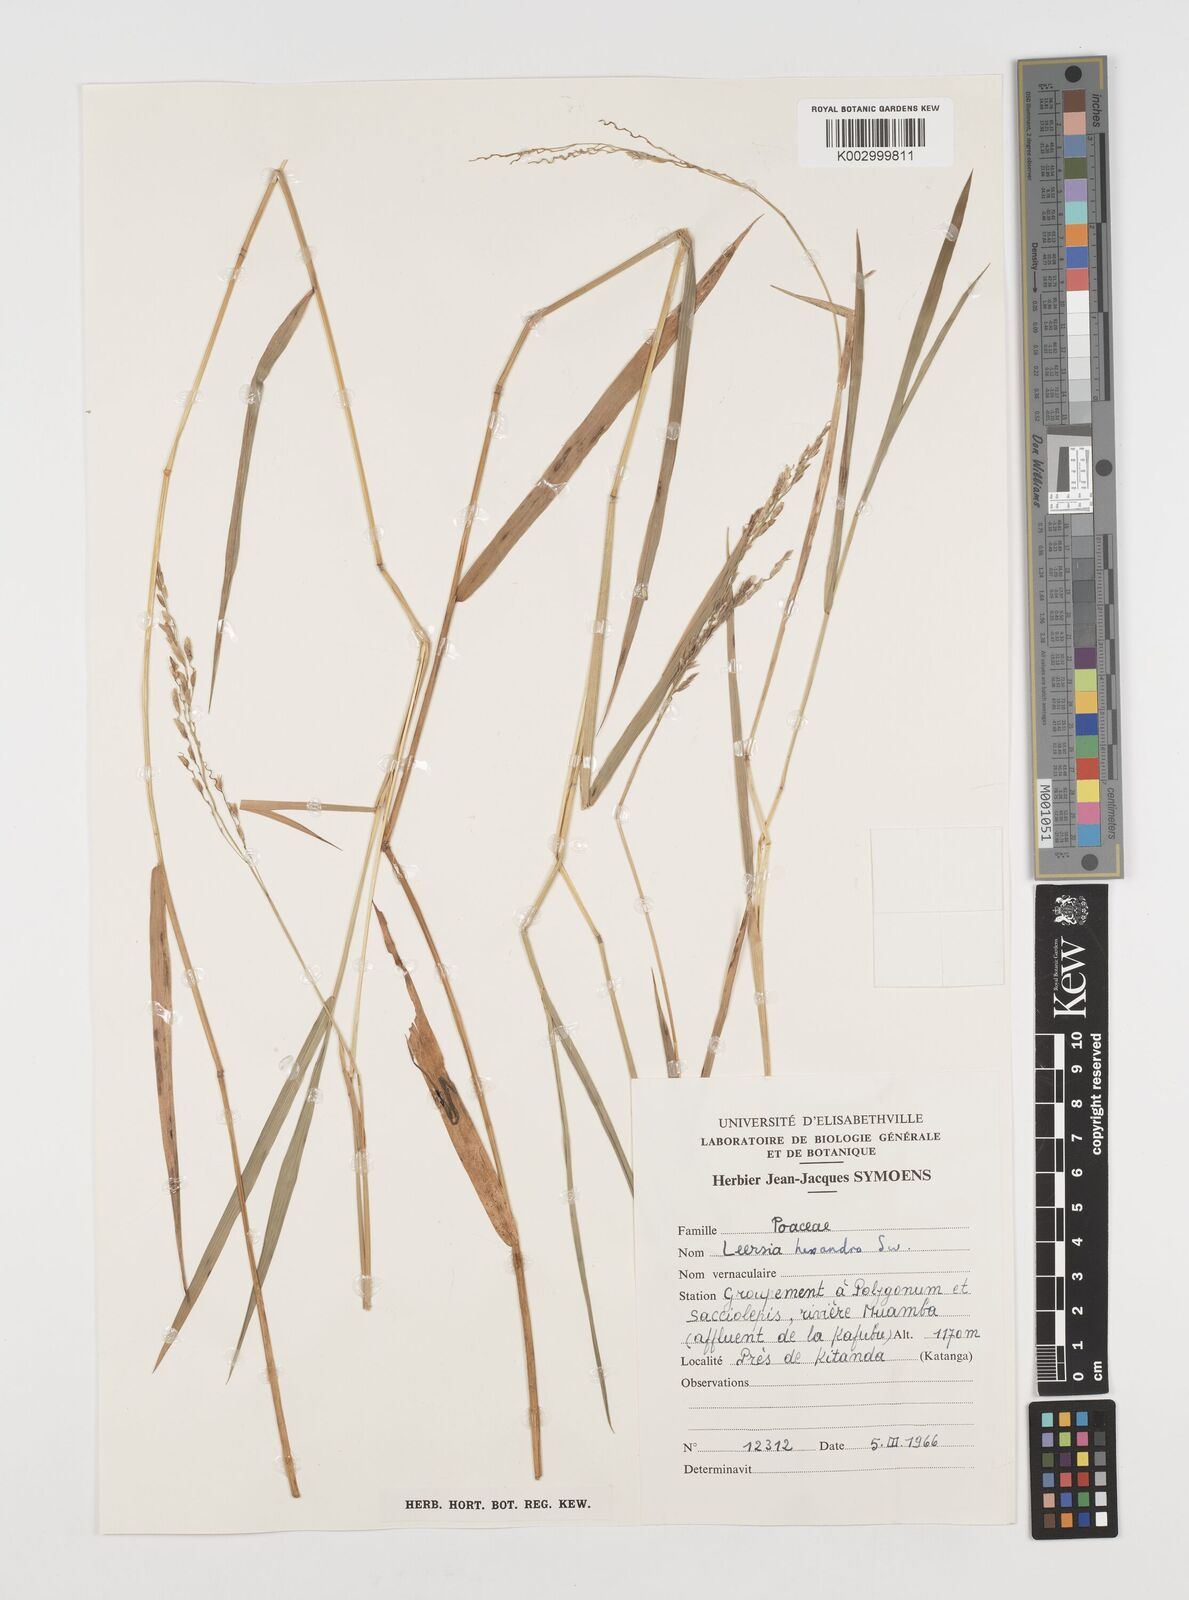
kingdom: Plantae
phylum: Tracheophyta
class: Liliopsida
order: Poales
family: Poaceae
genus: Leersia
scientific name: Leersia hexandra
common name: Southern cut grass
